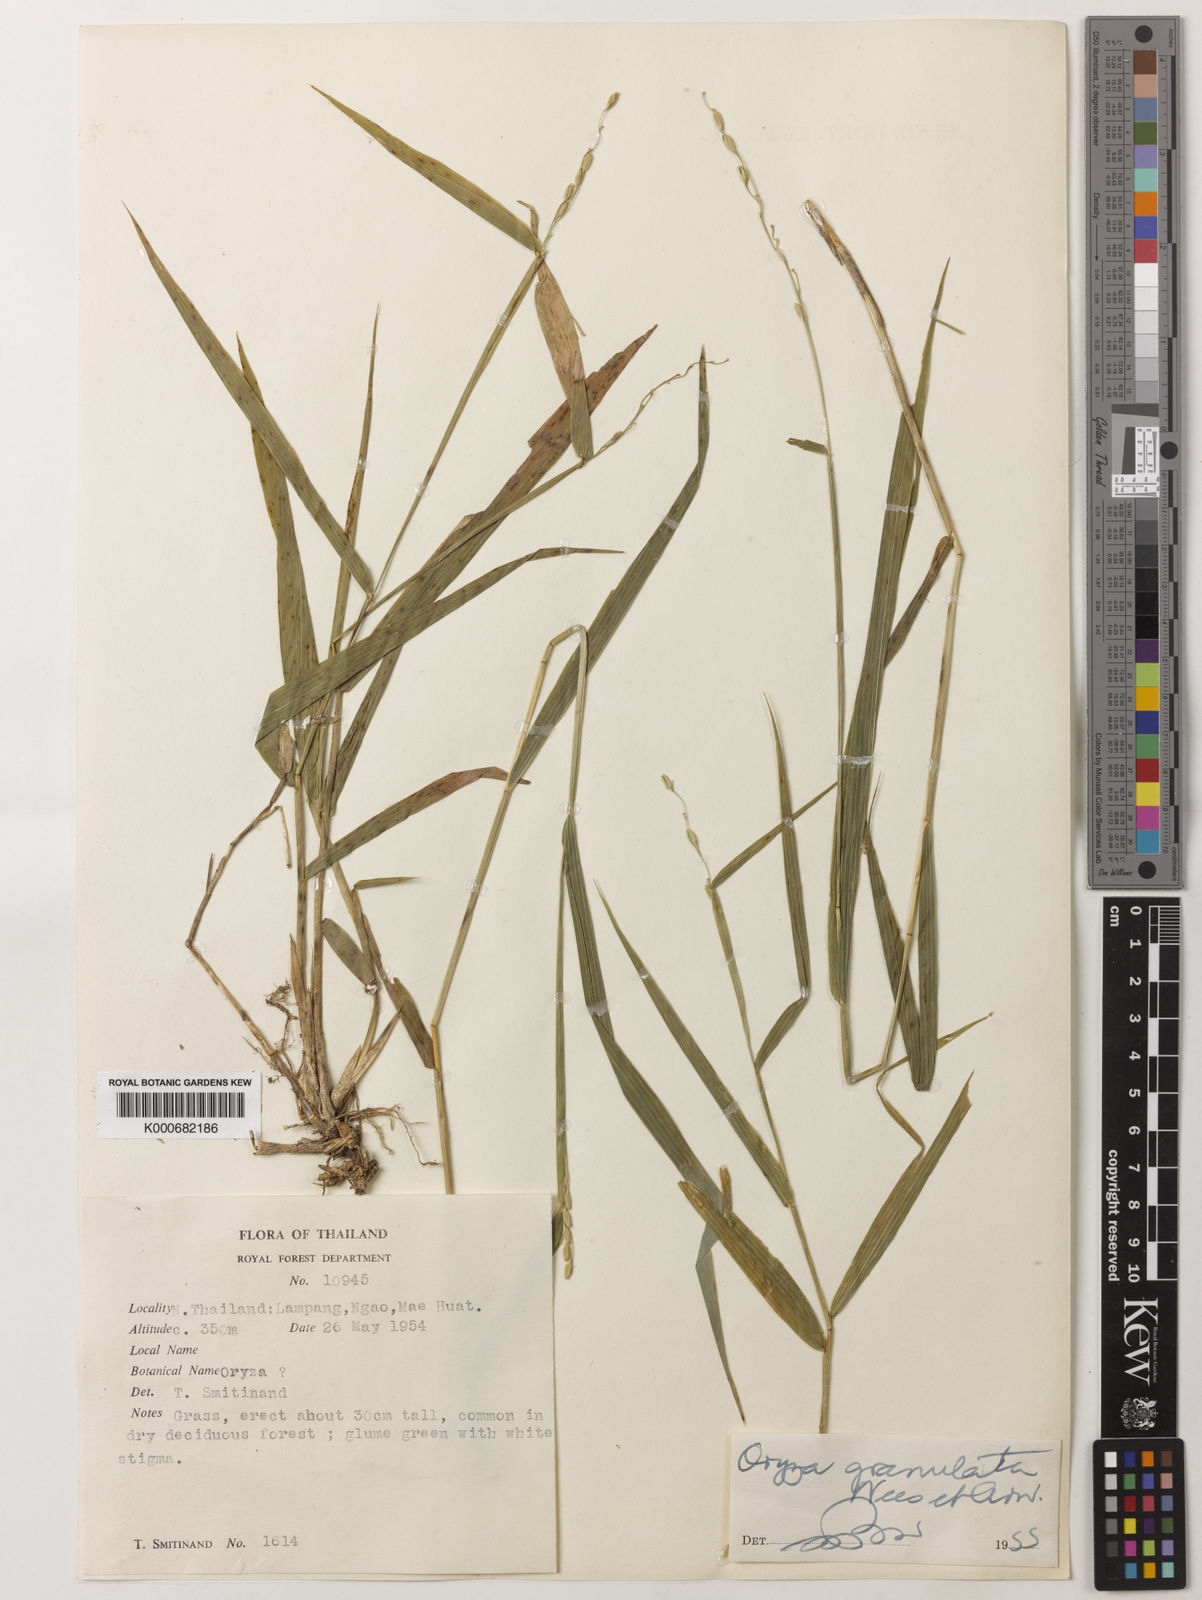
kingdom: Plantae
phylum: Tracheophyta
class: Liliopsida
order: Poales
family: Poaceae
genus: Oryza
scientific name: Oryza meyeriana
